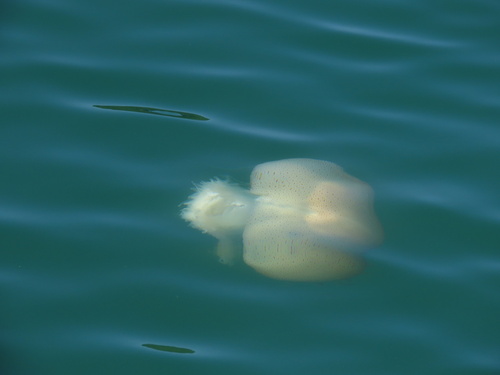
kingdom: Animalia
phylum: Cnidaria
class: Scyphozoa
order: Rhizostomeae
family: Rhizostomatidae
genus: Rhopilema
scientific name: Rhopilema hispidum
